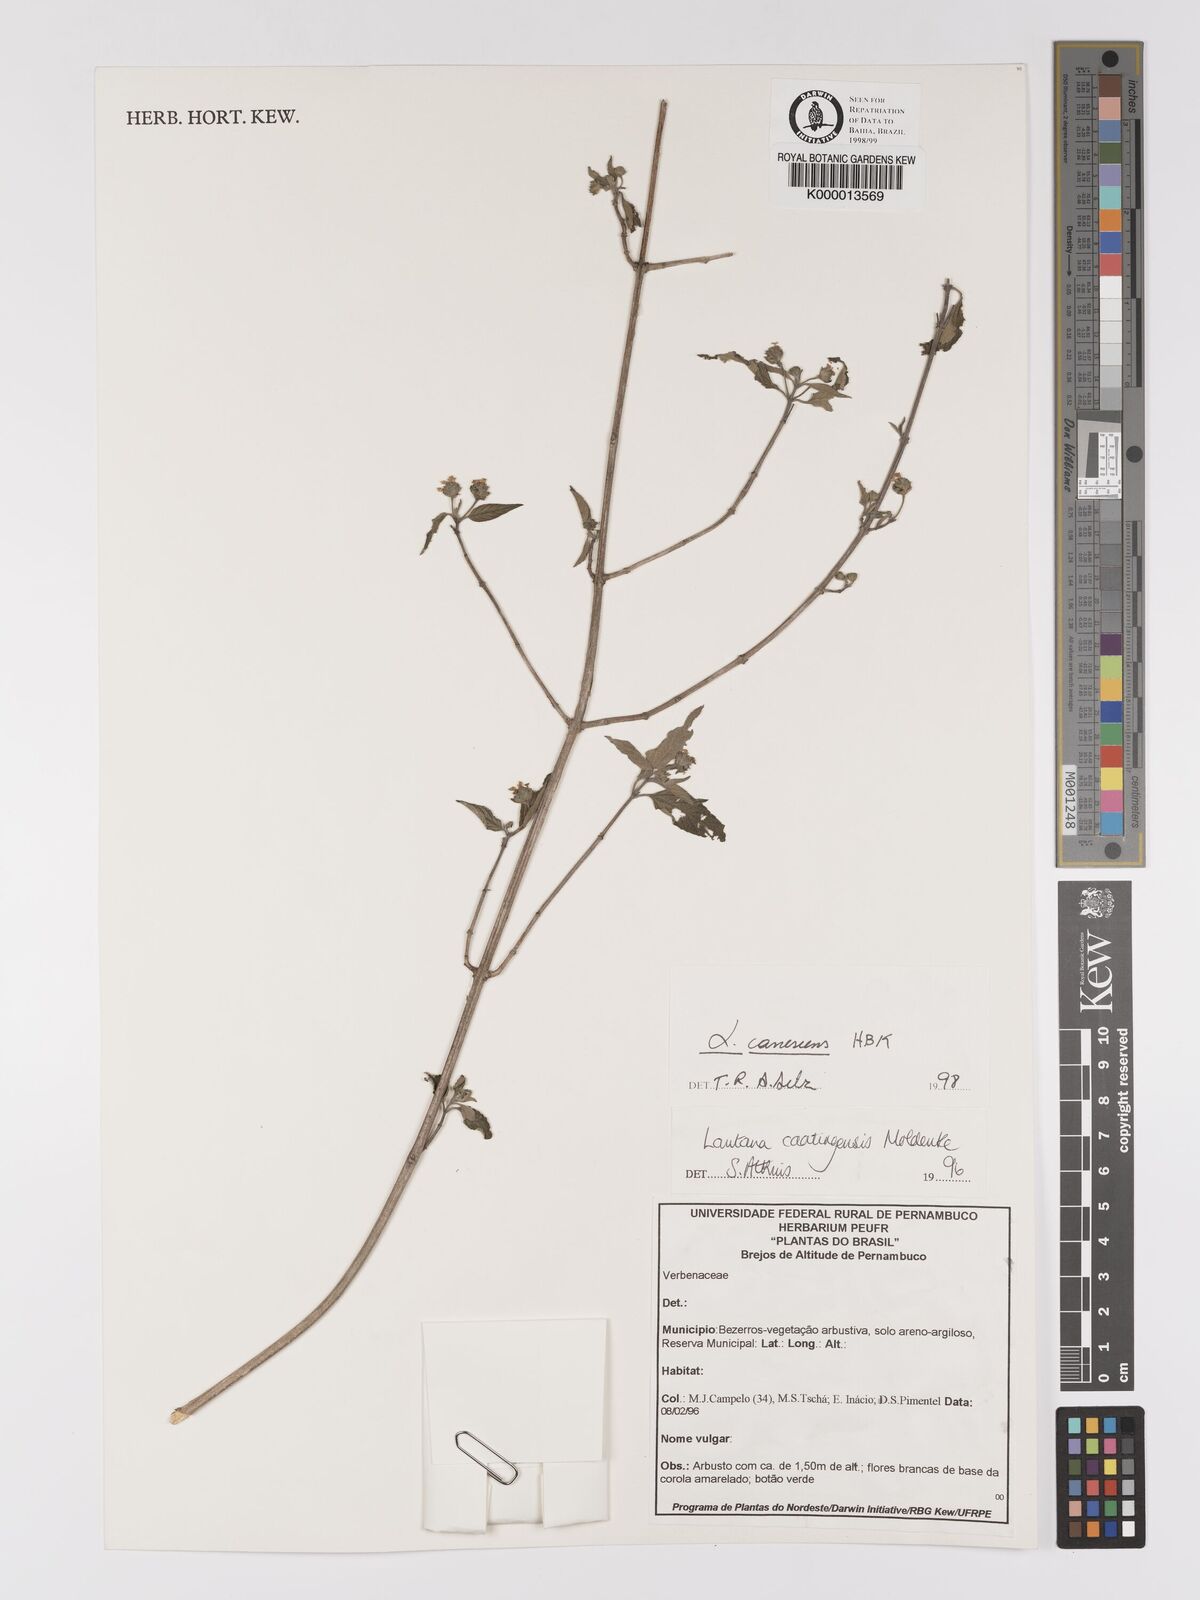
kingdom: Plantae
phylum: Tracheophyta
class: Magnoliopsida
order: Lamiales
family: Verbenaceae
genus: Lantana
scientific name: Lantana canescens
